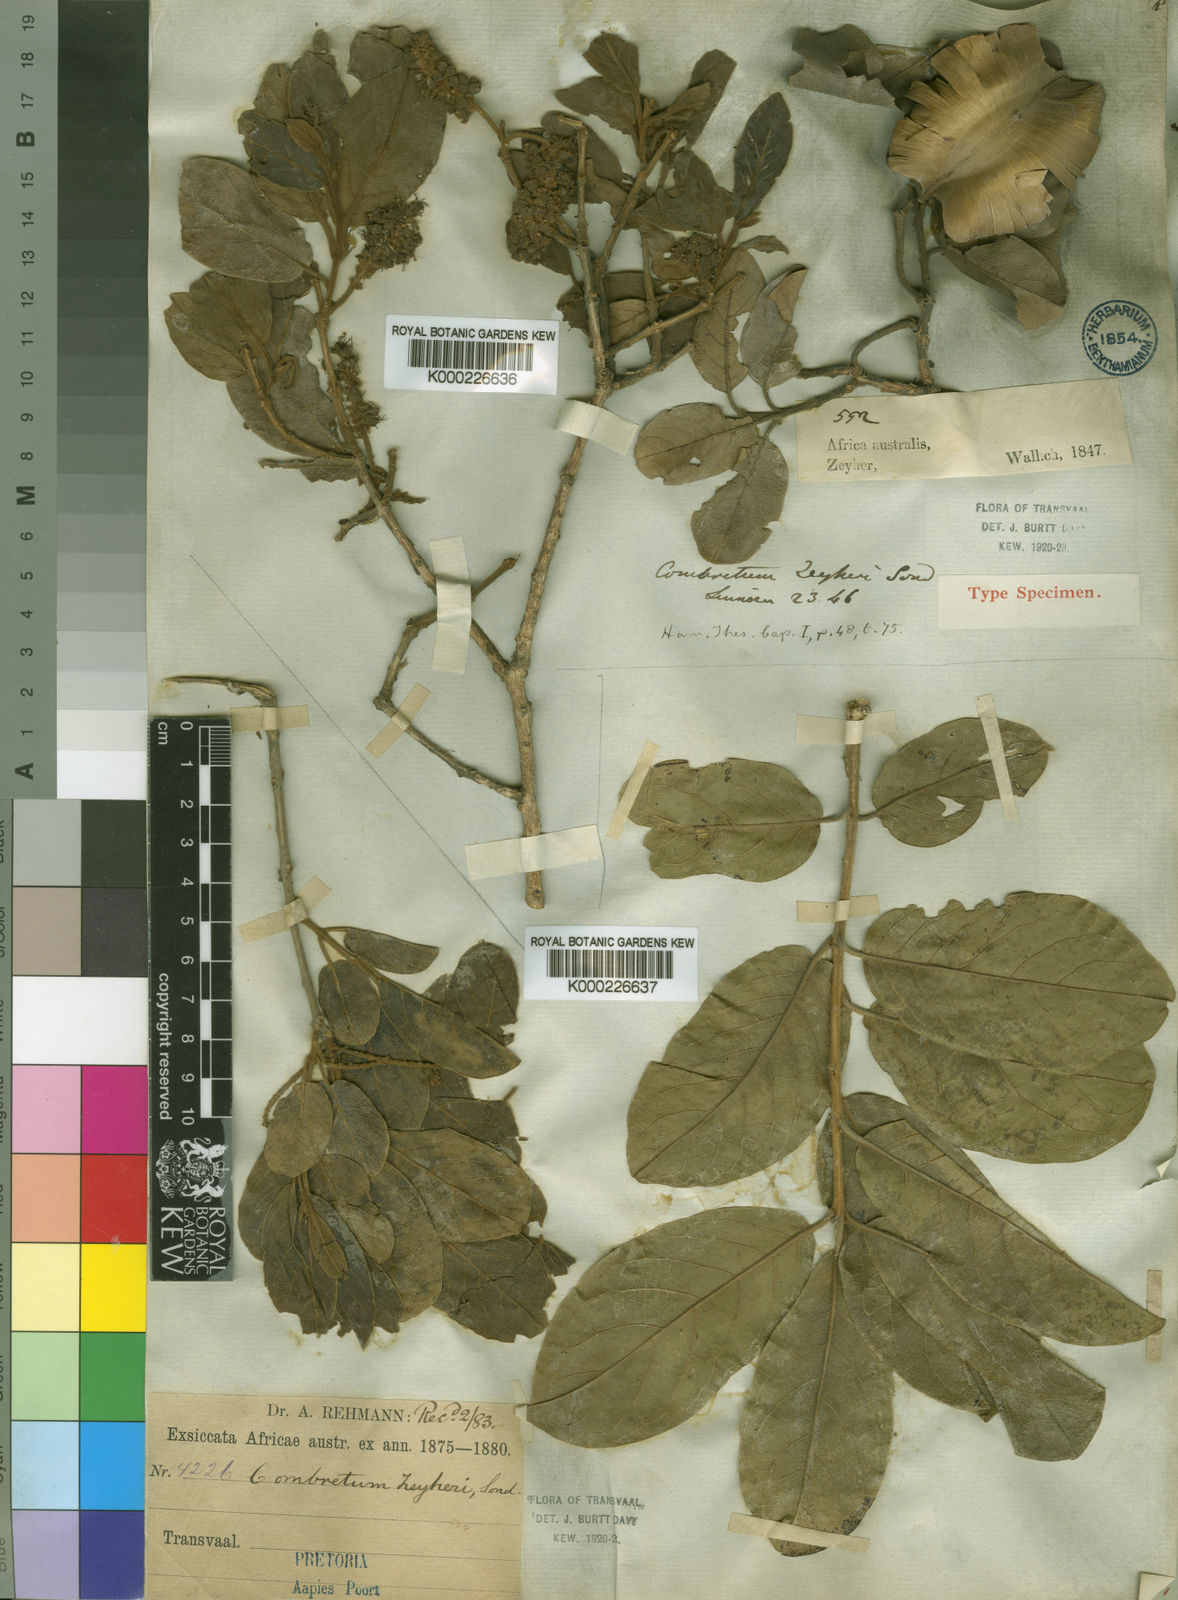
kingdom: Plantae
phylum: Tracheophyta
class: Magnoliopsida
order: Myrtales
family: Combretaceae
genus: Combretum
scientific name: Combretum zeyheri
